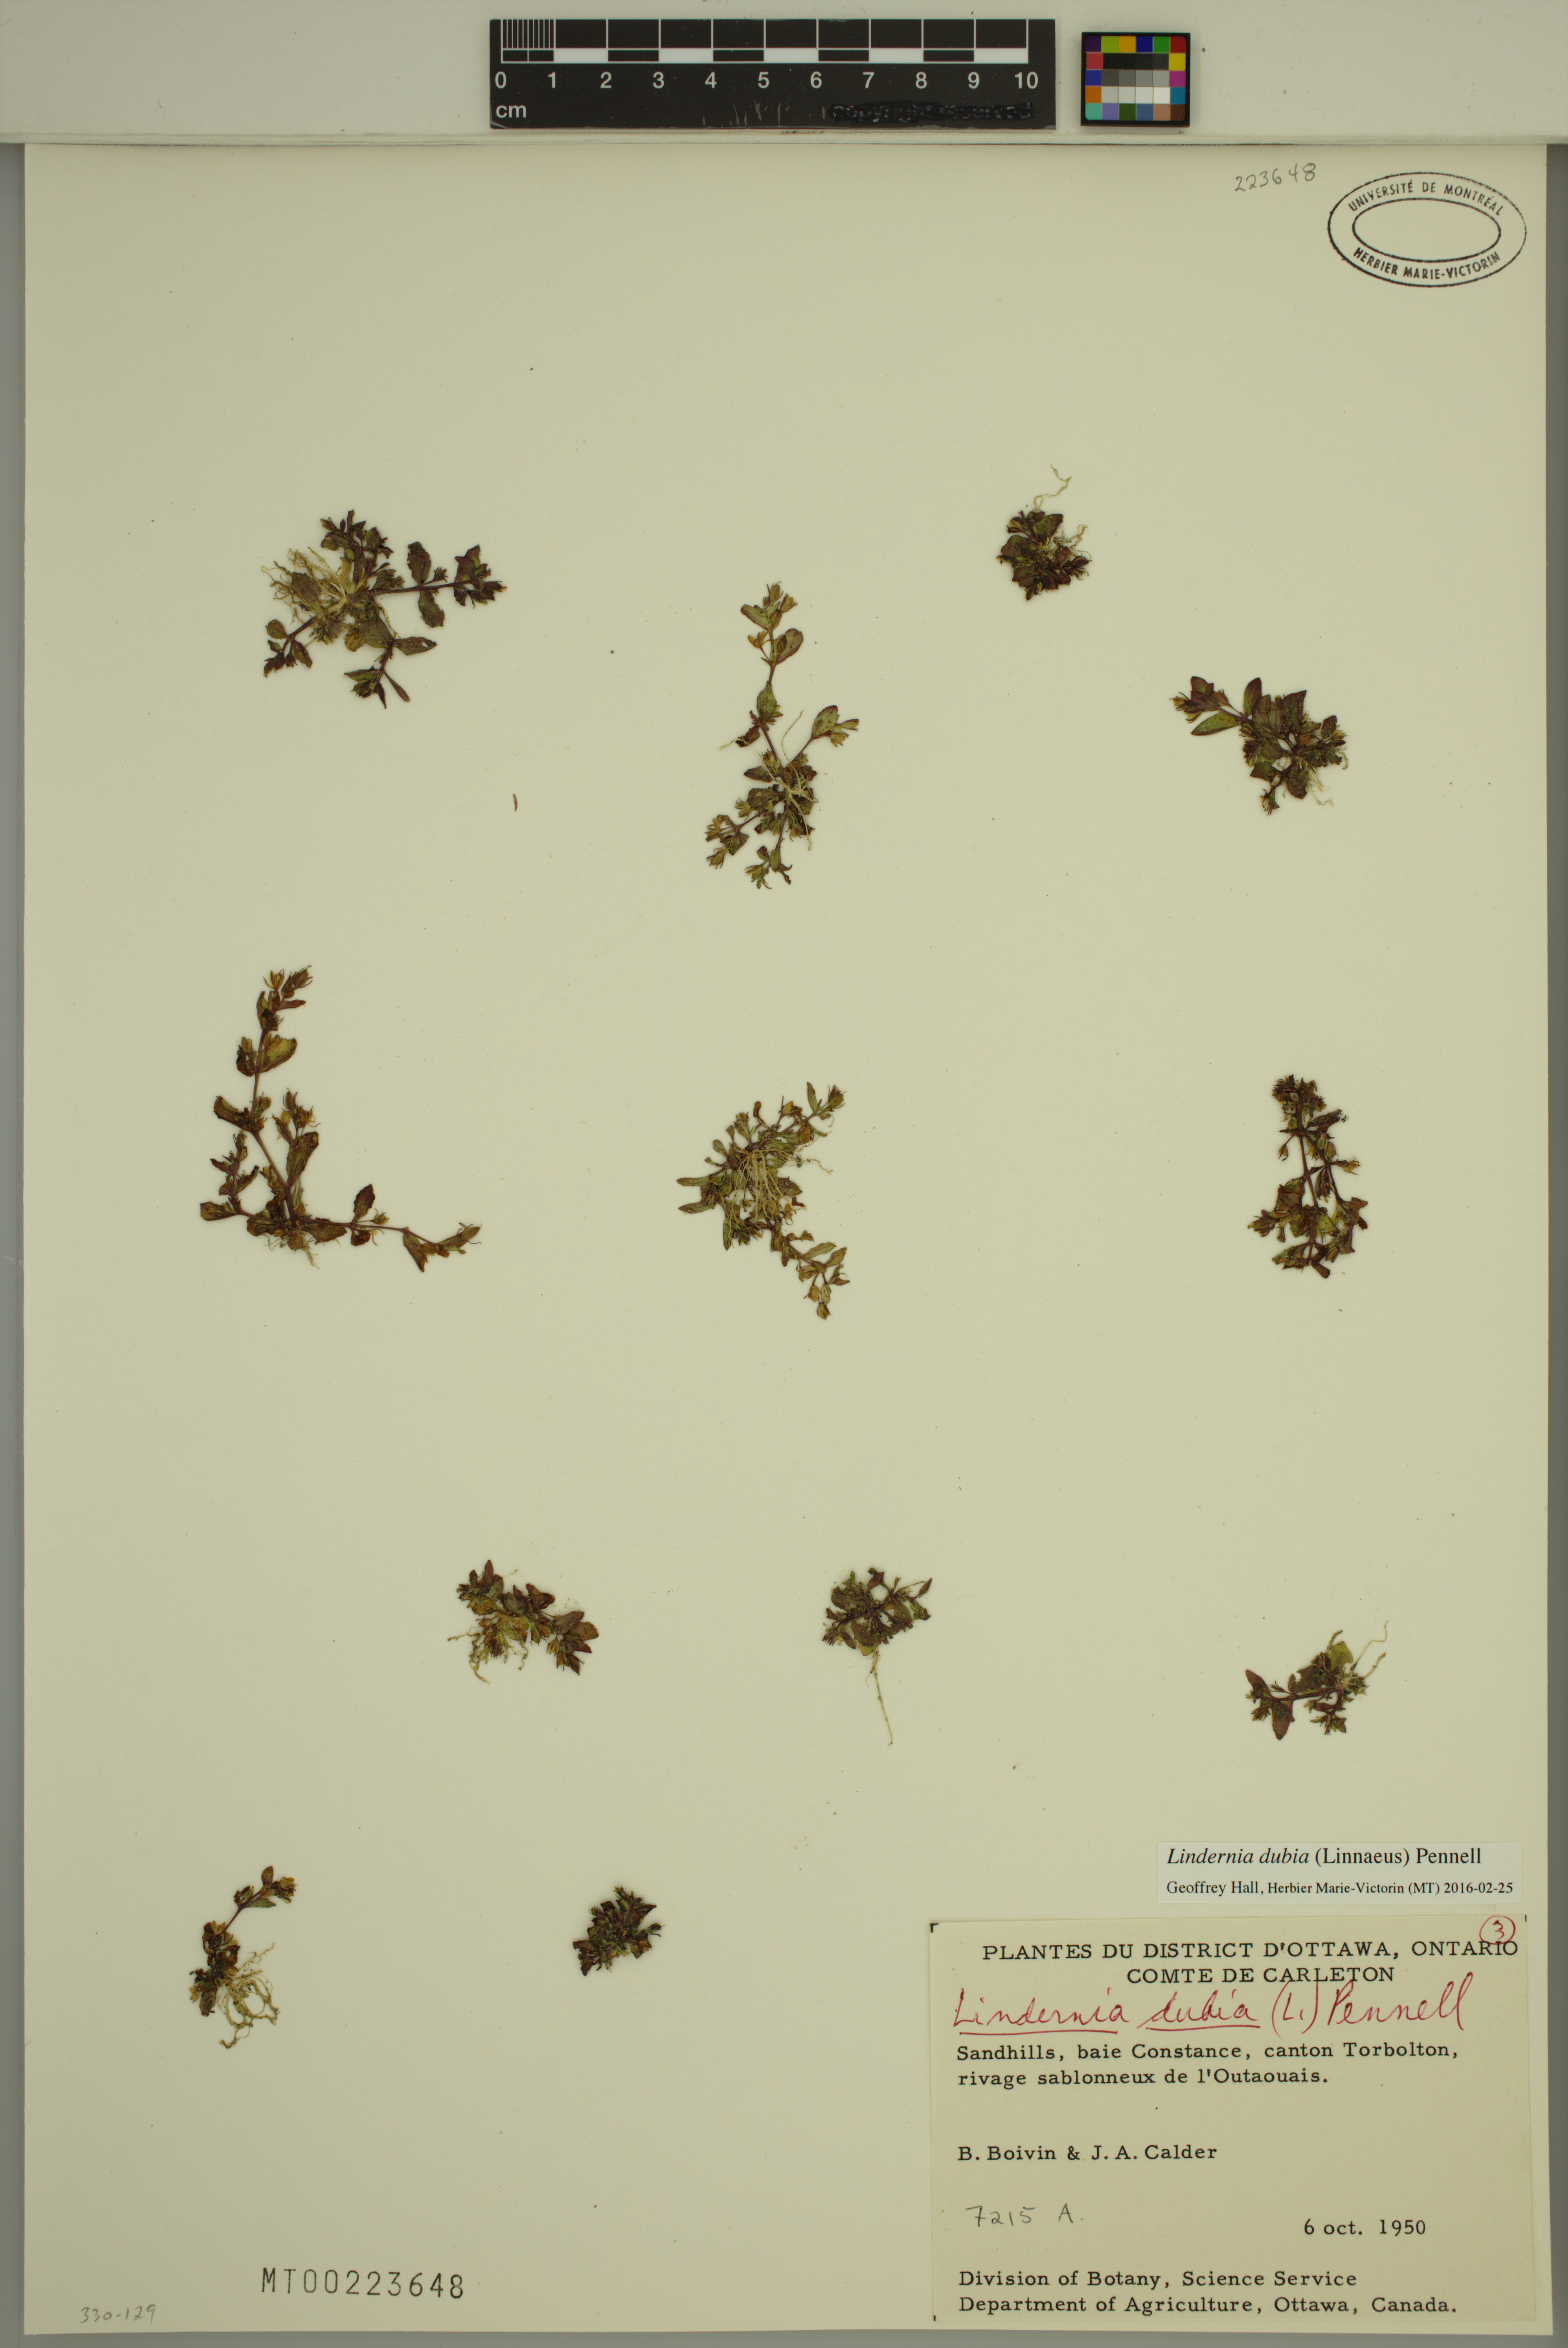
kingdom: Plantae
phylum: Tracheophyta
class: Magnoliopsida
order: Lamiales
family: Linderniaceae
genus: Lindernia
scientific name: Lindernia dubia
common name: Annual false pimpernel
